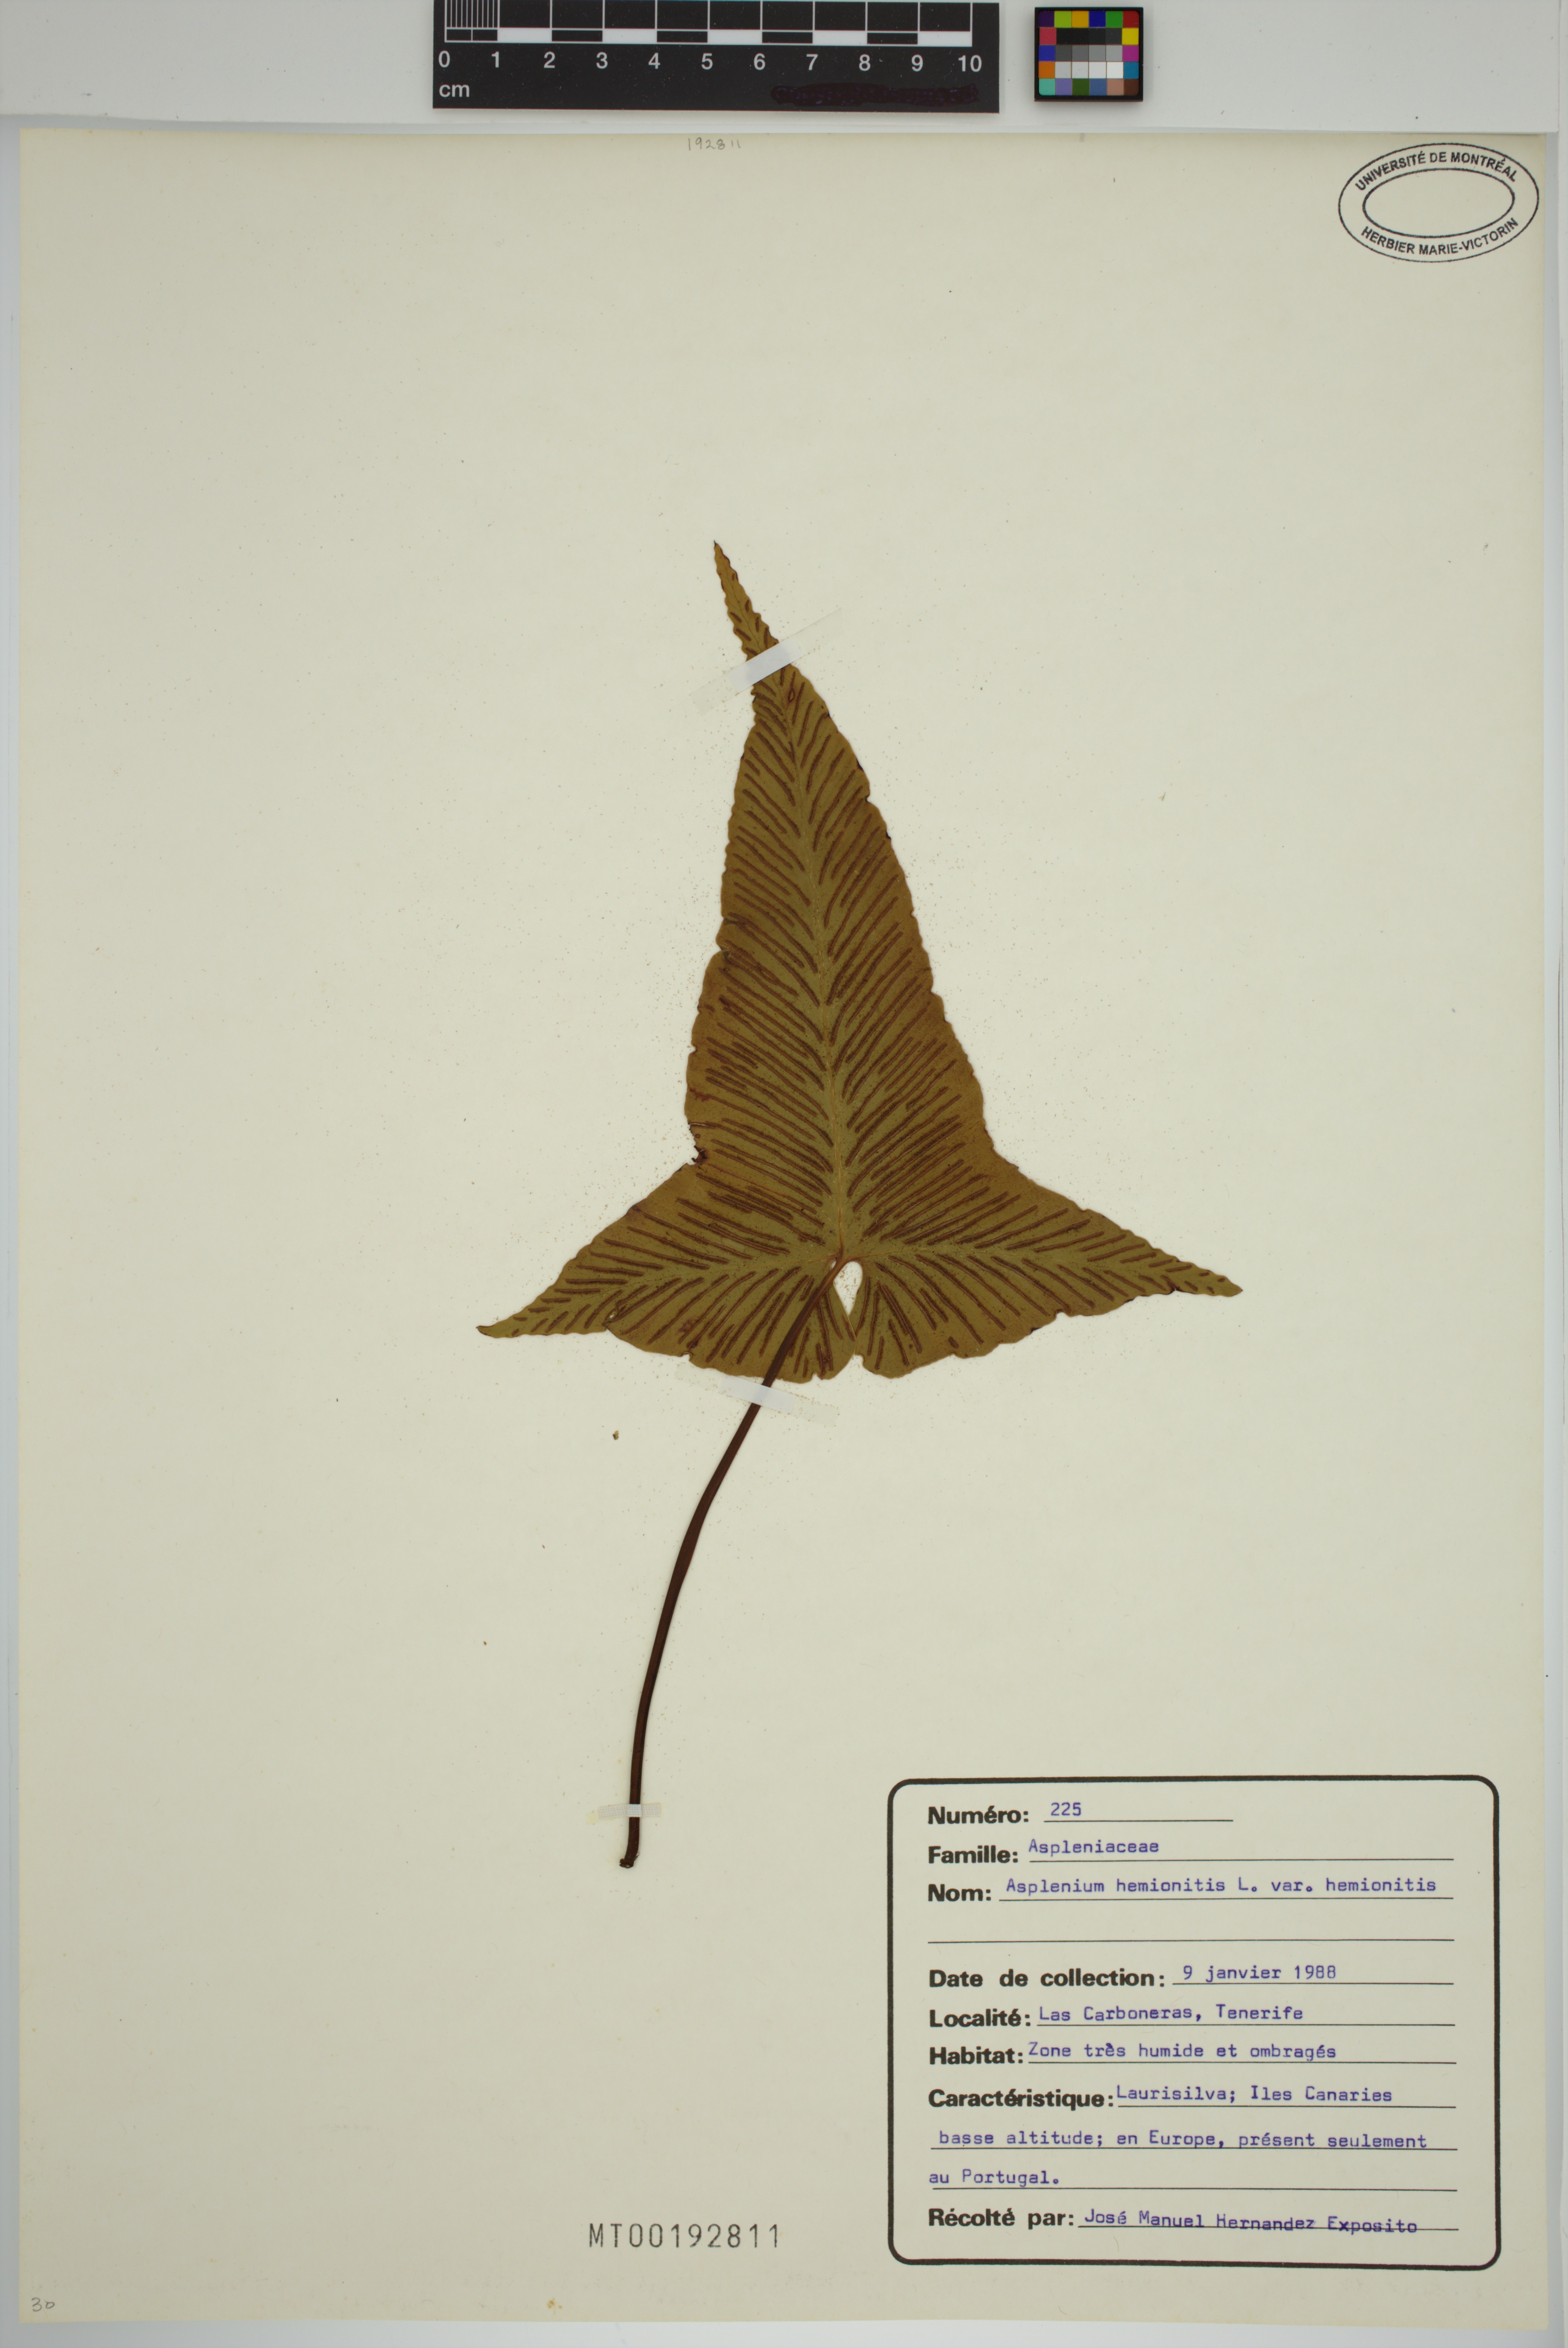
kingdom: Plantae
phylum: Tracheophyta
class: Polypodiopsida
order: Polypodiales
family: Aspleniaceae
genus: Asplenium
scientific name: Asplenium hemionitis
